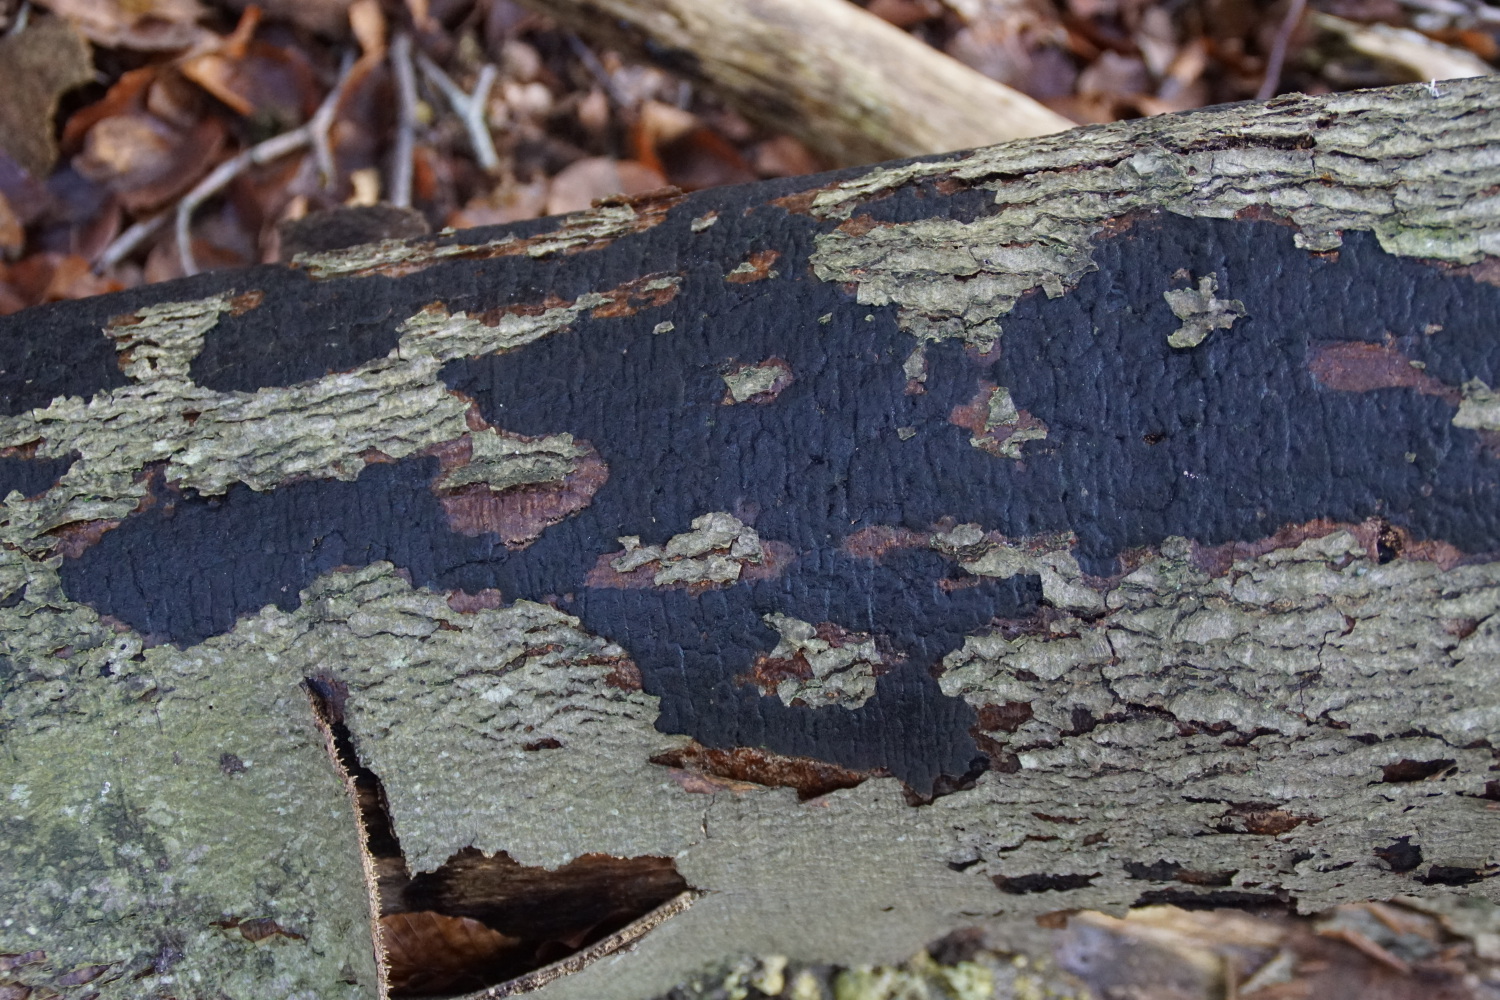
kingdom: Fungi
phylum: Ascomycota
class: Sordariomycetes
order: Xylariales
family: Diatrypaceae
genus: Eutypa
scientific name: Eutypa spinosa
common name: grov kulskorpe
